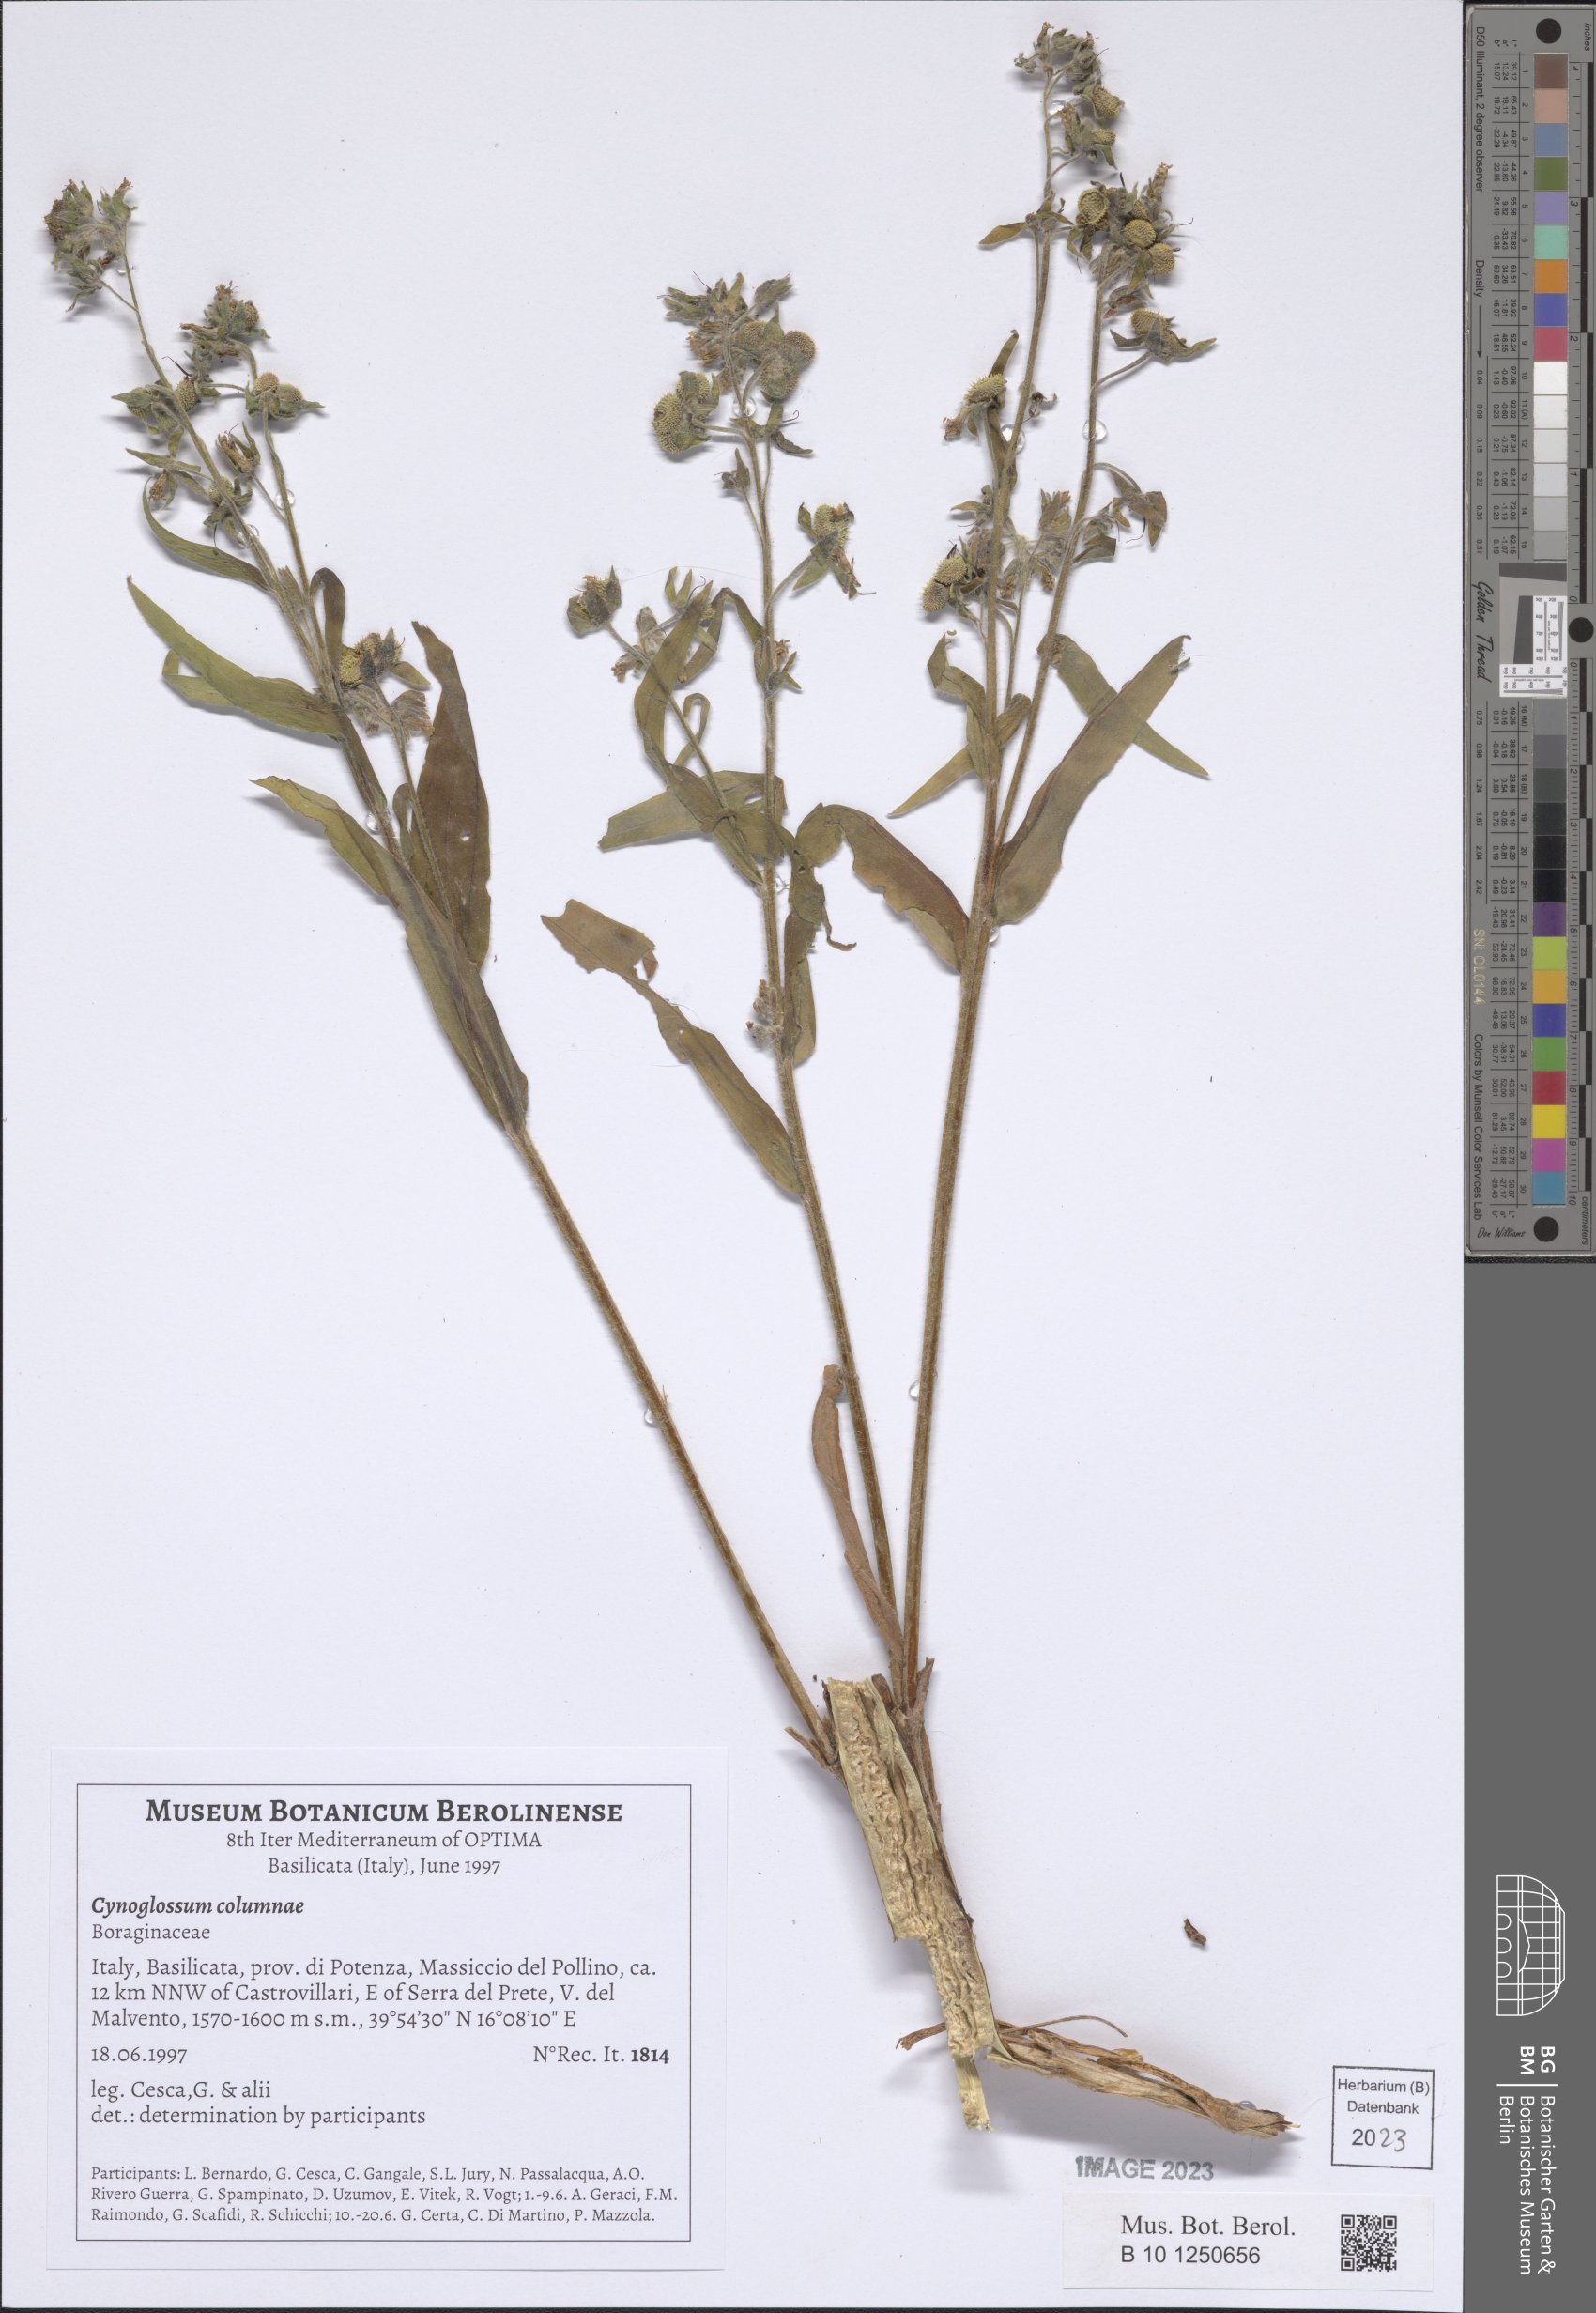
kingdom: Plantae
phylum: Tracheophyta
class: Magnoliopsida
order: Boraginales
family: Boraginaceae
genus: Rindera
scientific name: Rindera columnae
